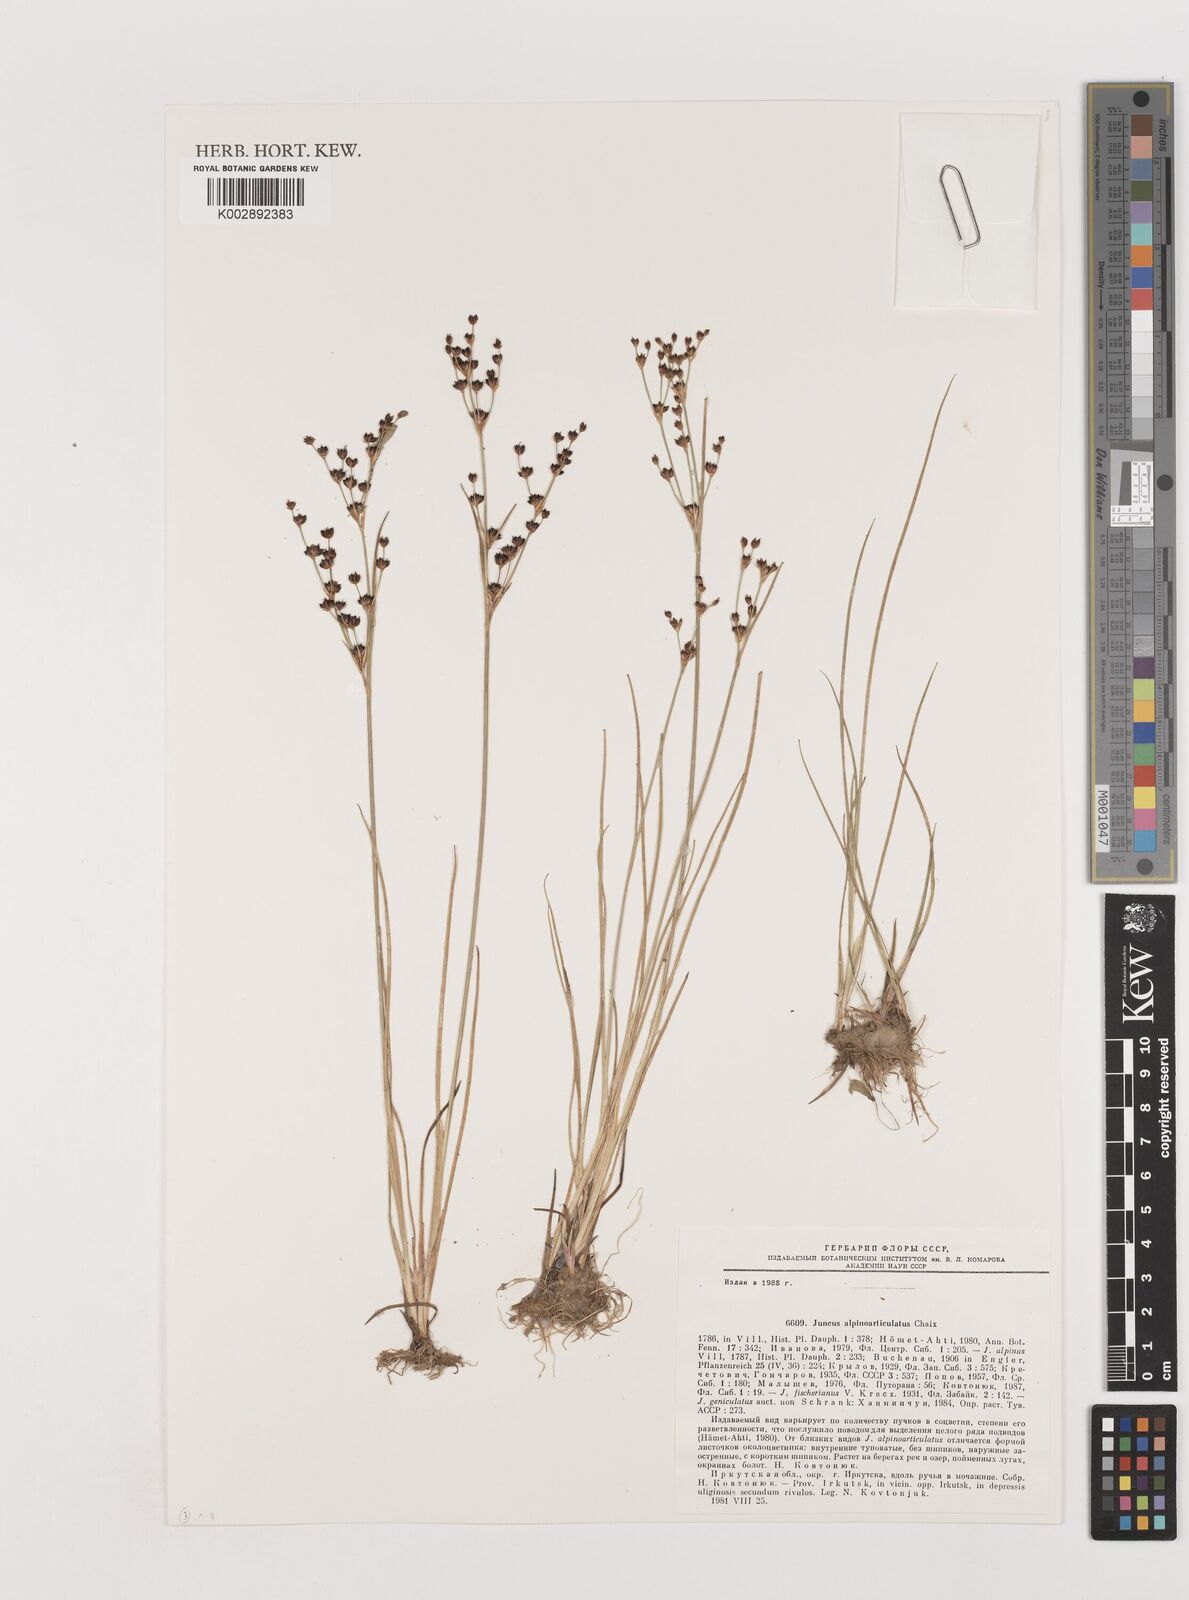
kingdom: Plantae
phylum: Tracheophyta
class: Liliopsida
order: Poales
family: Juncaceae
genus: Juncus
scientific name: Juncus alpinoarticulatus
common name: Alpine rush
